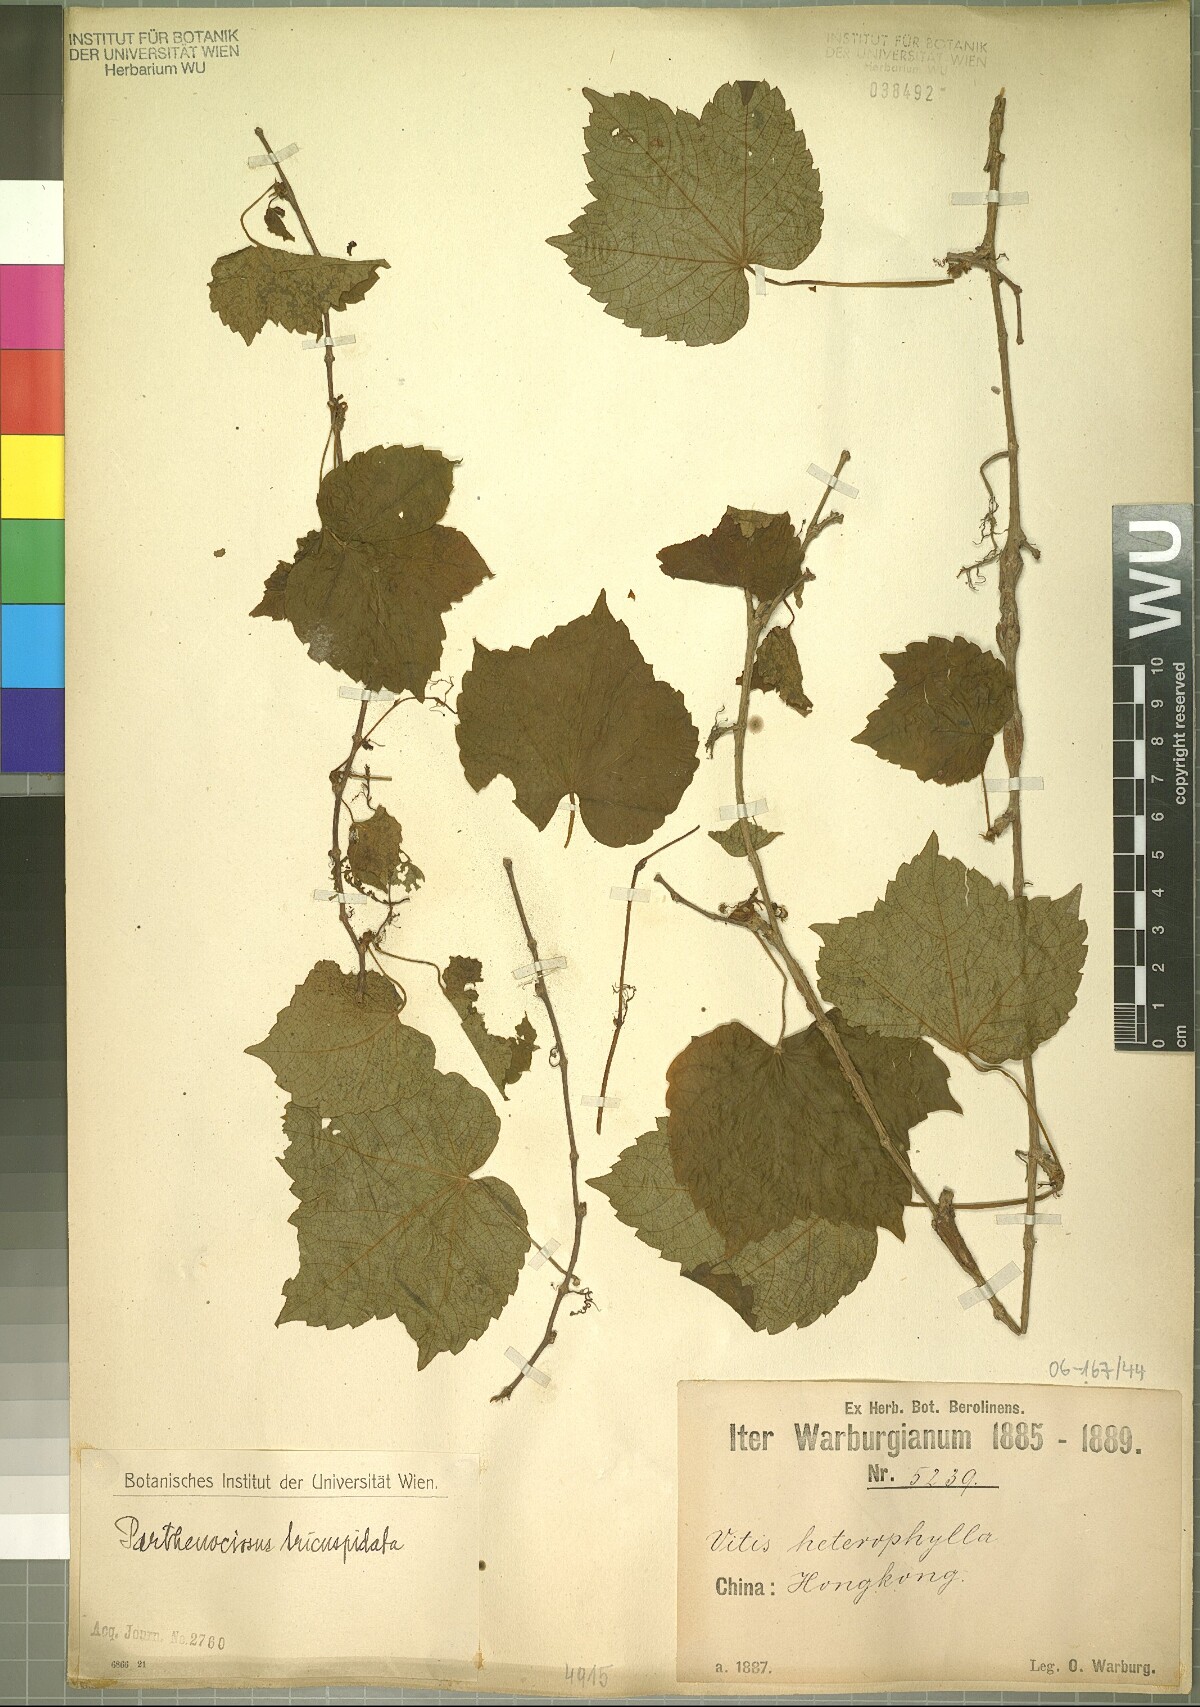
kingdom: Plantae
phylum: Tracheophyta
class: Magnoliopsida
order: Vitales
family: Vitaceae
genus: Parthenocissus
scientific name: Parthenocissus tricuspidata
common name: Boston ivy
